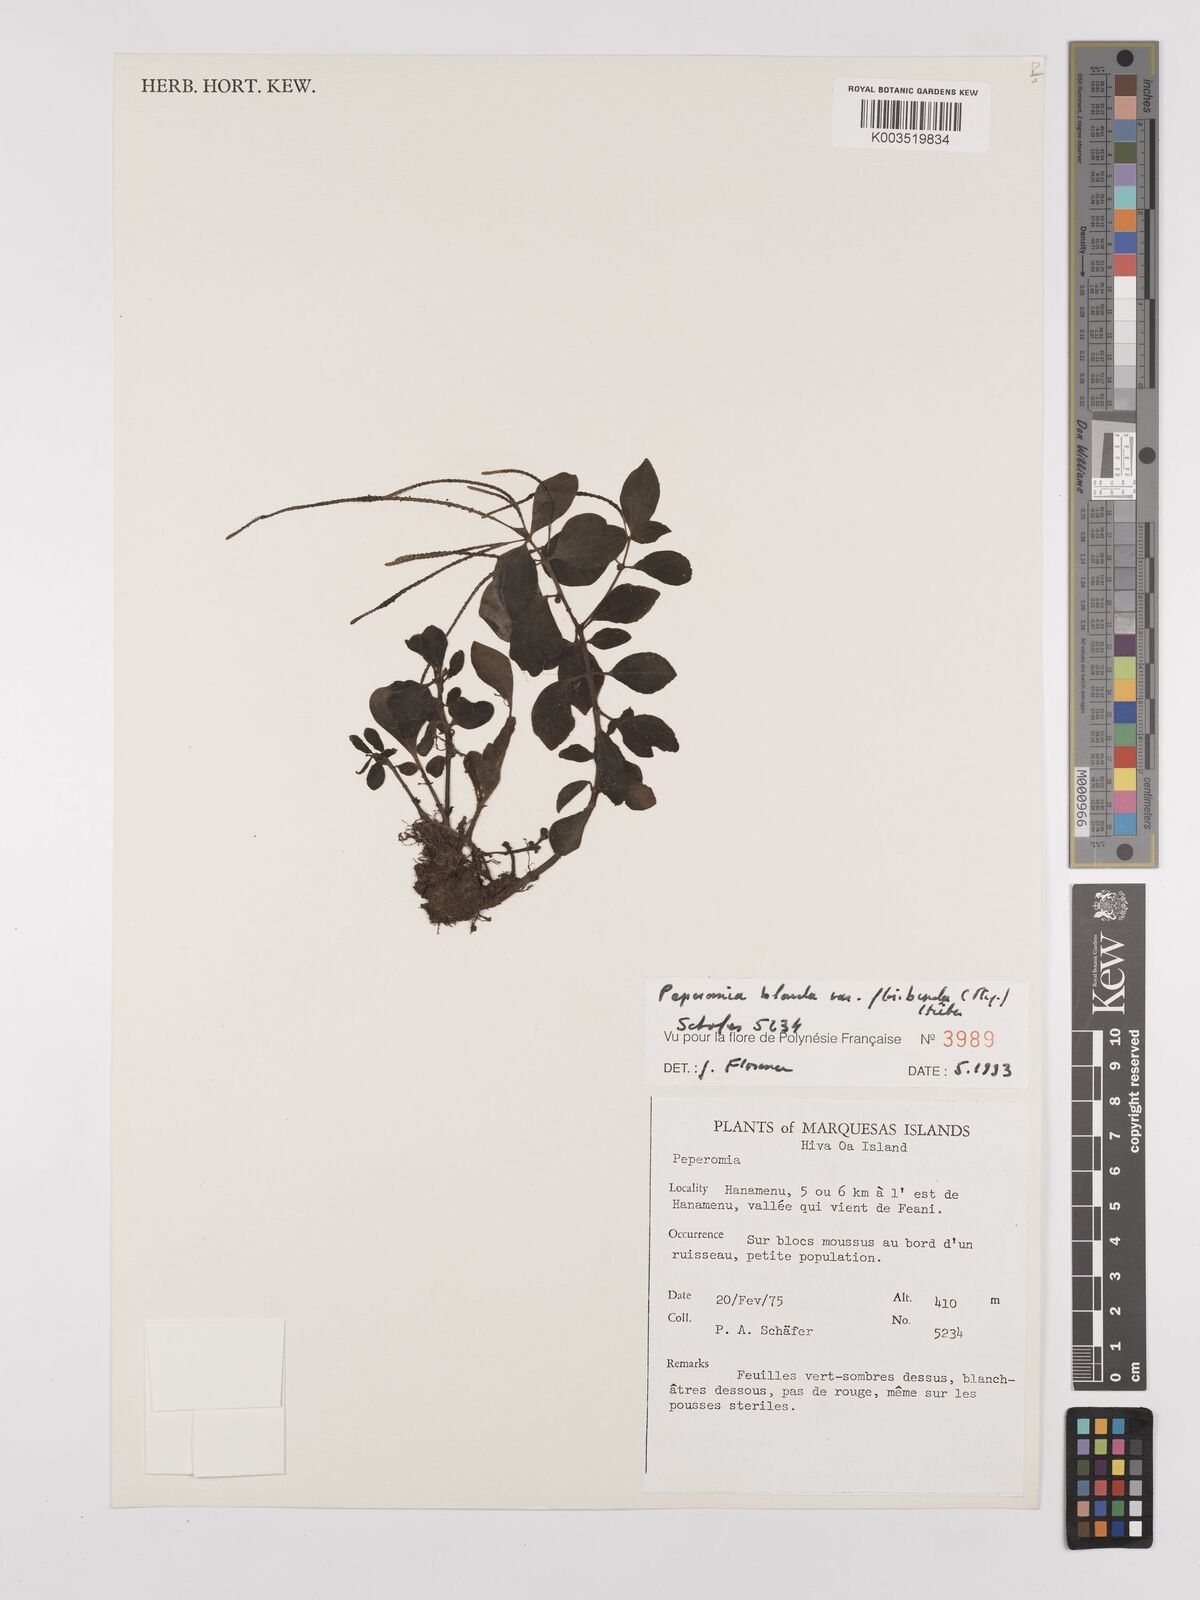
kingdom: Plantae
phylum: Tracheophyta
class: Magnoliopsida
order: Piperales
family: Piperaceae
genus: Peperomia
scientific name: Peperomia leptostachya
